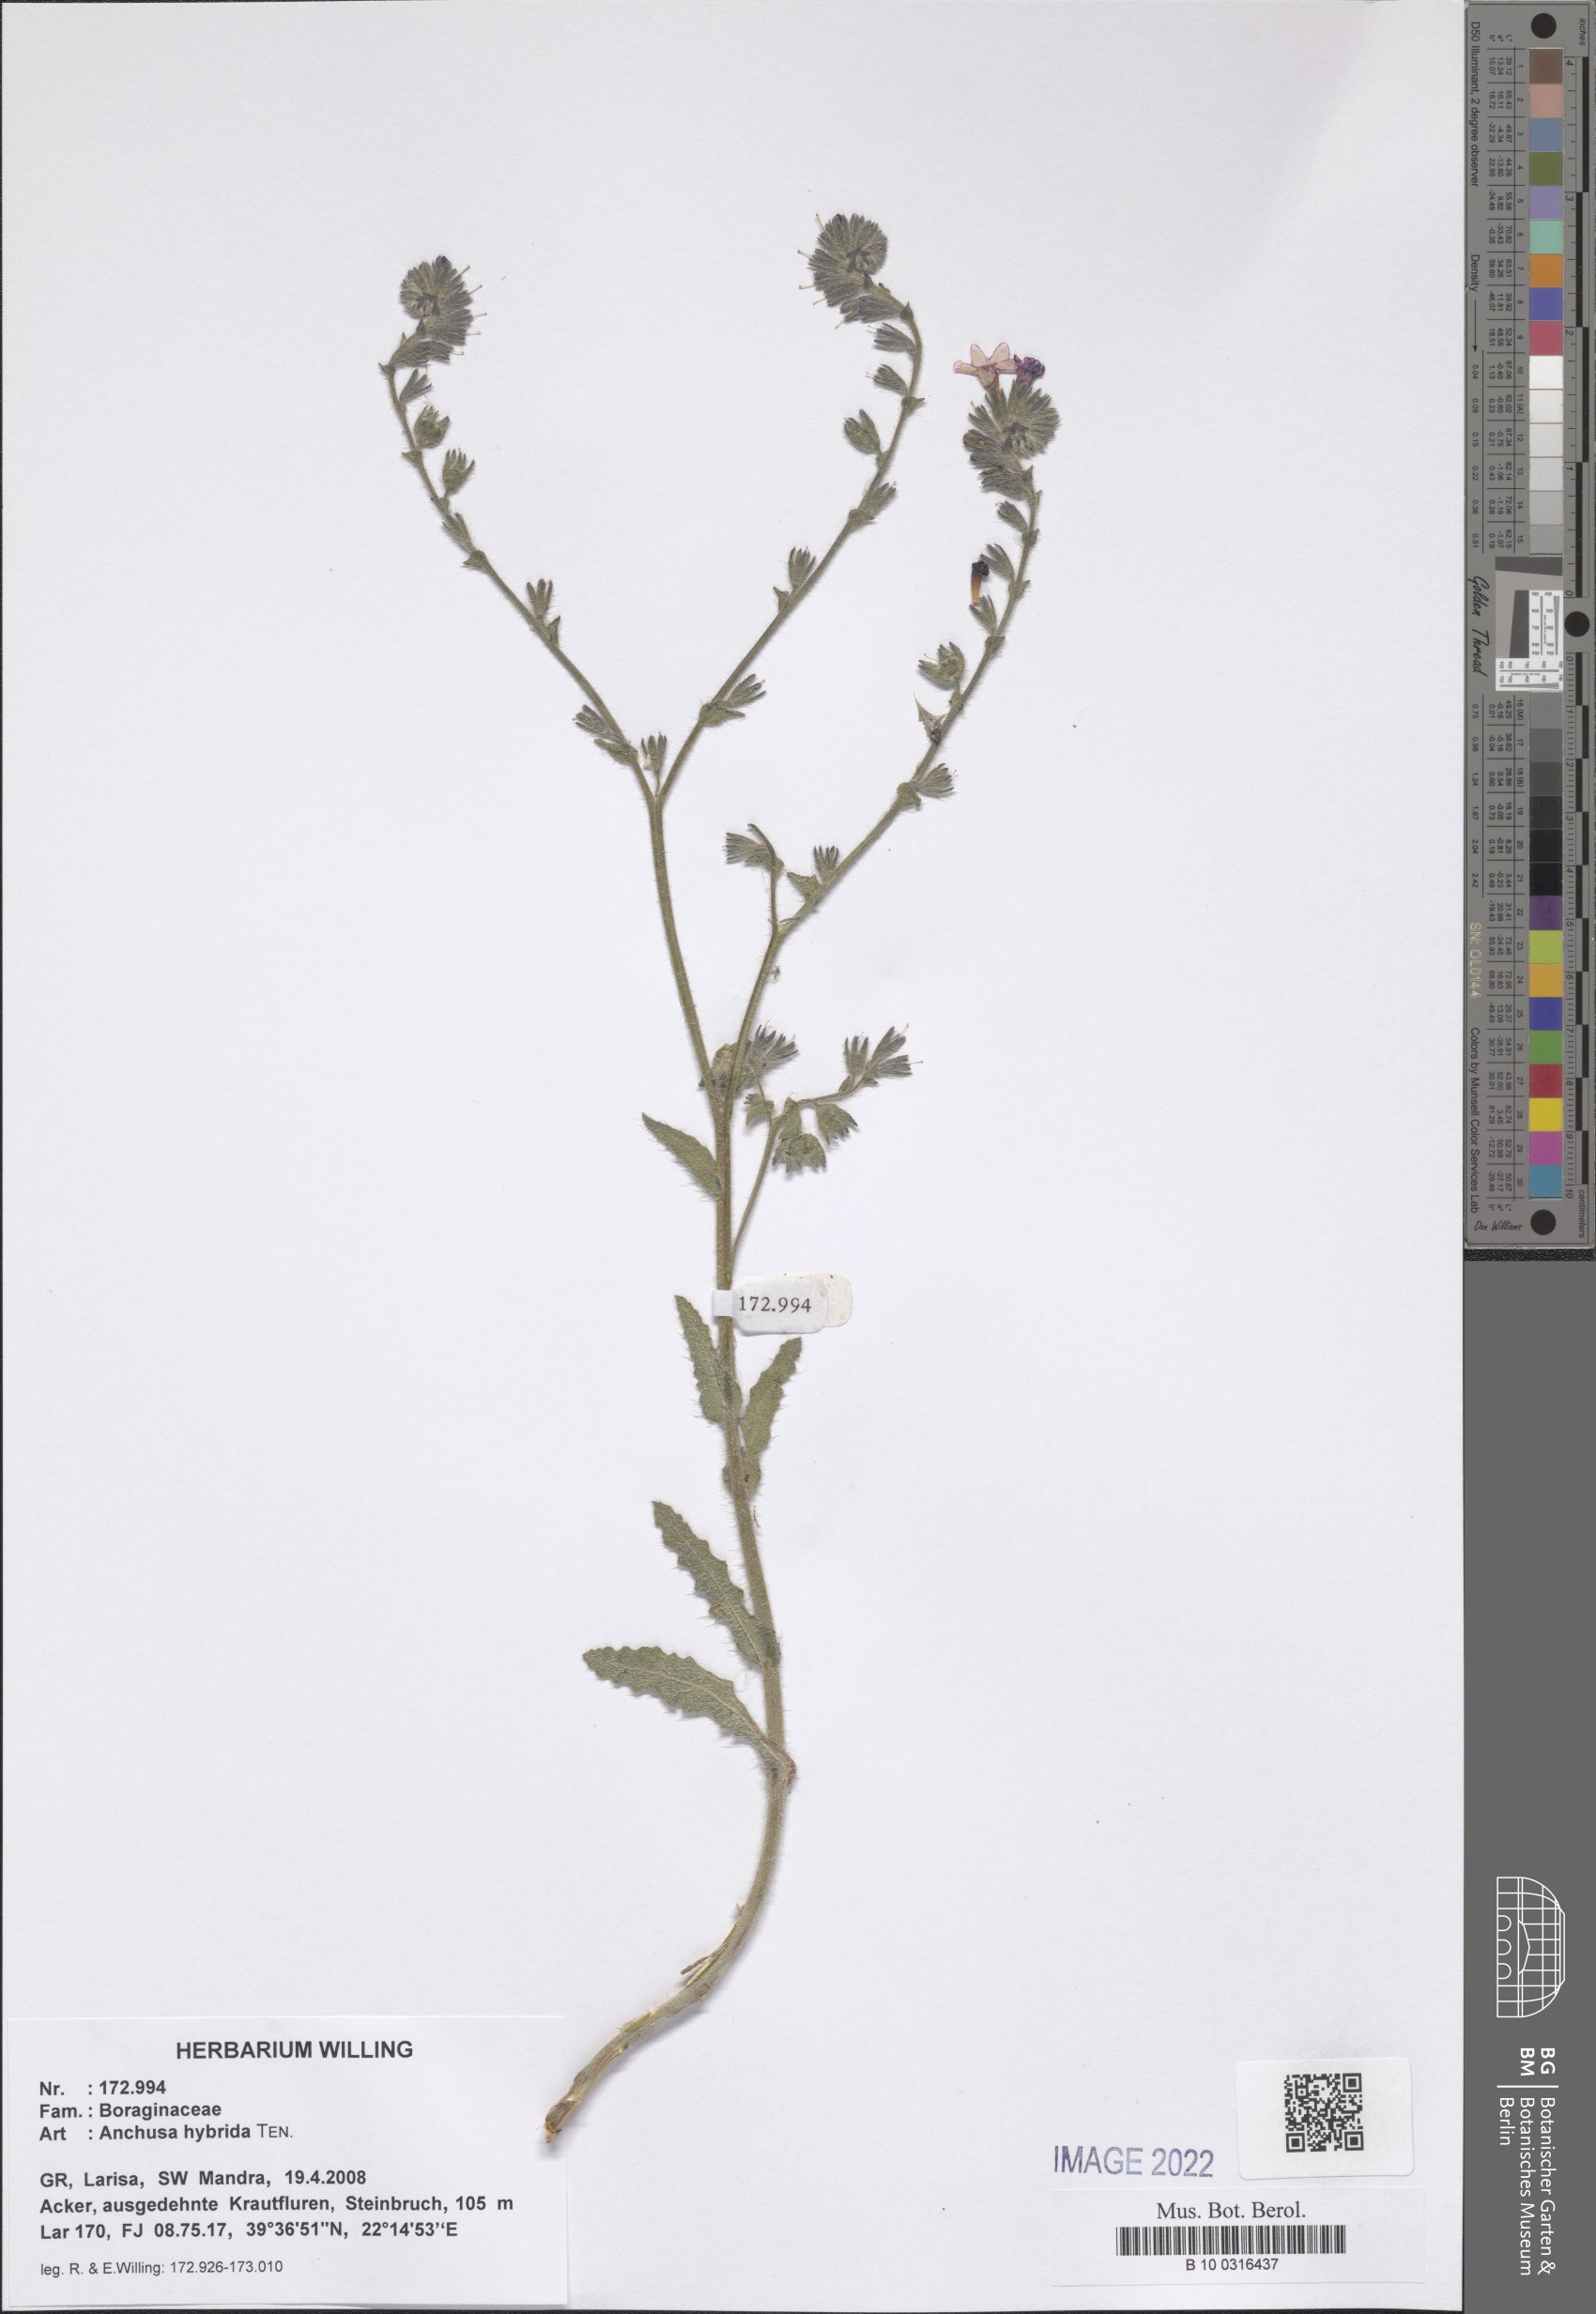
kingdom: Plantae
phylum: Tracheophyta
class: Magnoliopsida
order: Boraginales
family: Boraginaceae
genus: Anchusa
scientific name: Anchusa hybrida
